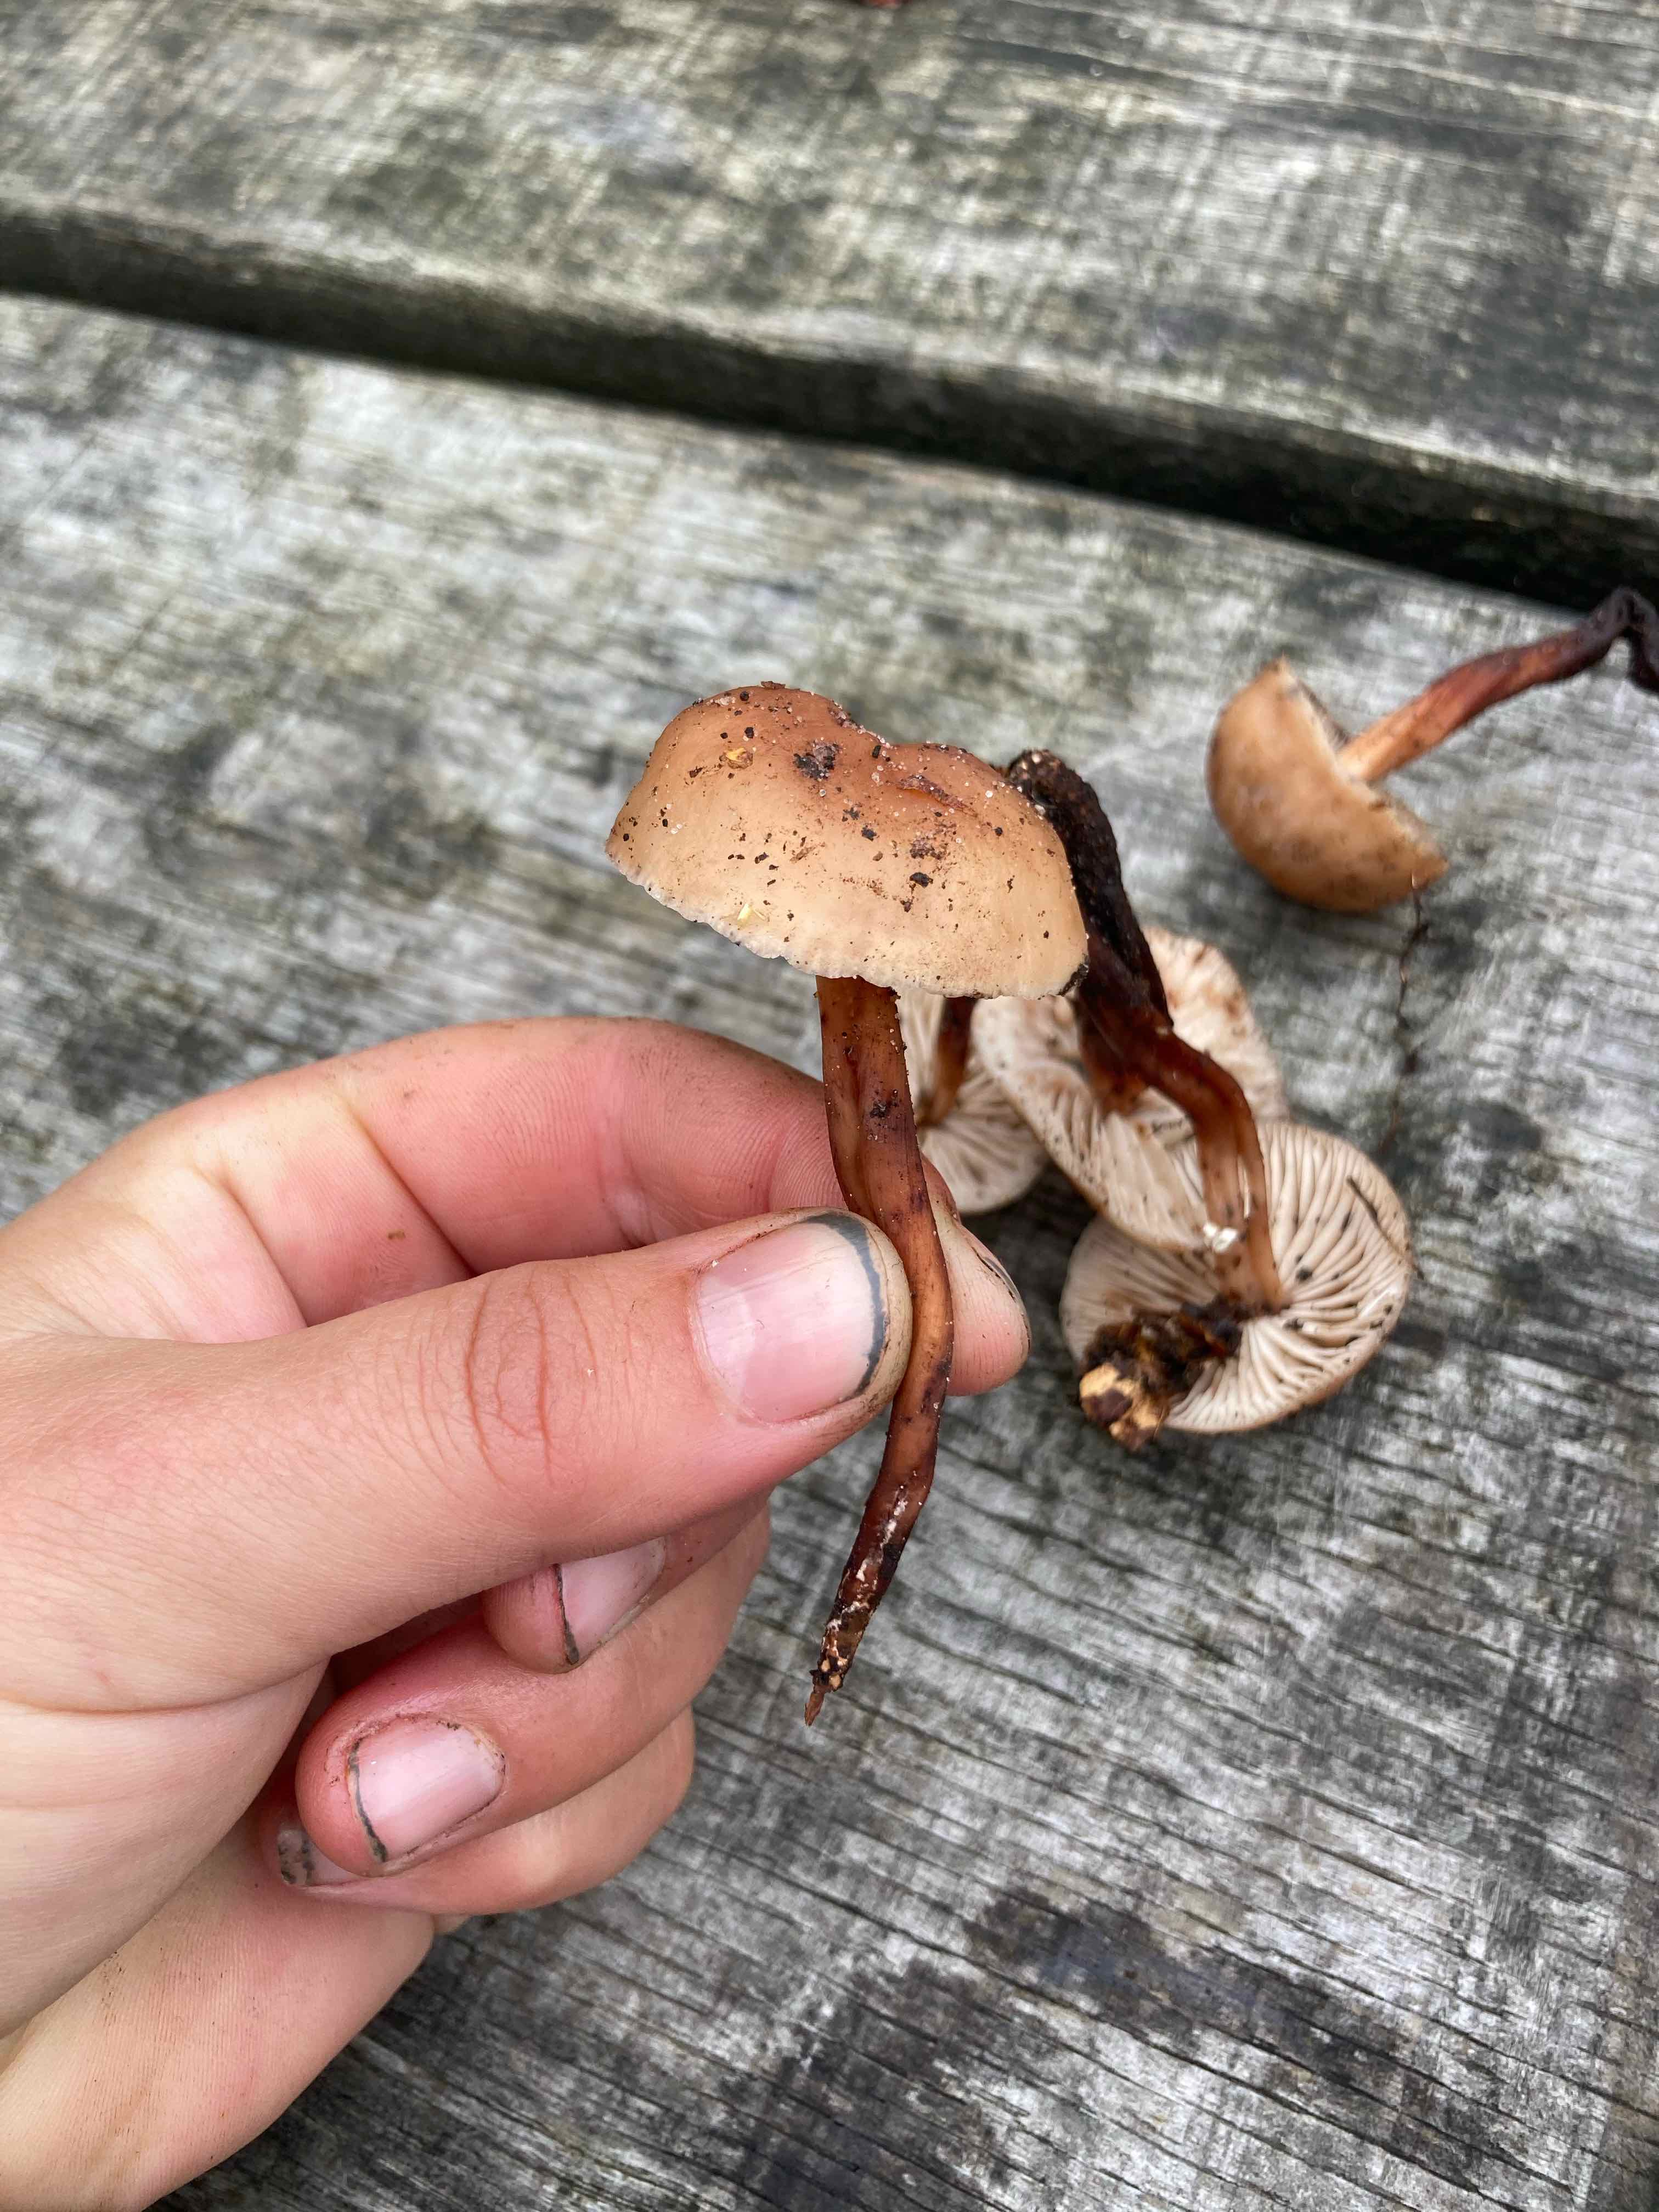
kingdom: Fungi
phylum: Basidiomycota
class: Agaricomycetes
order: Agaricales
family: Omphalotaceae
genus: Gymnopus
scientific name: Gymnopus fusipes
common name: tenstokket fladhat
